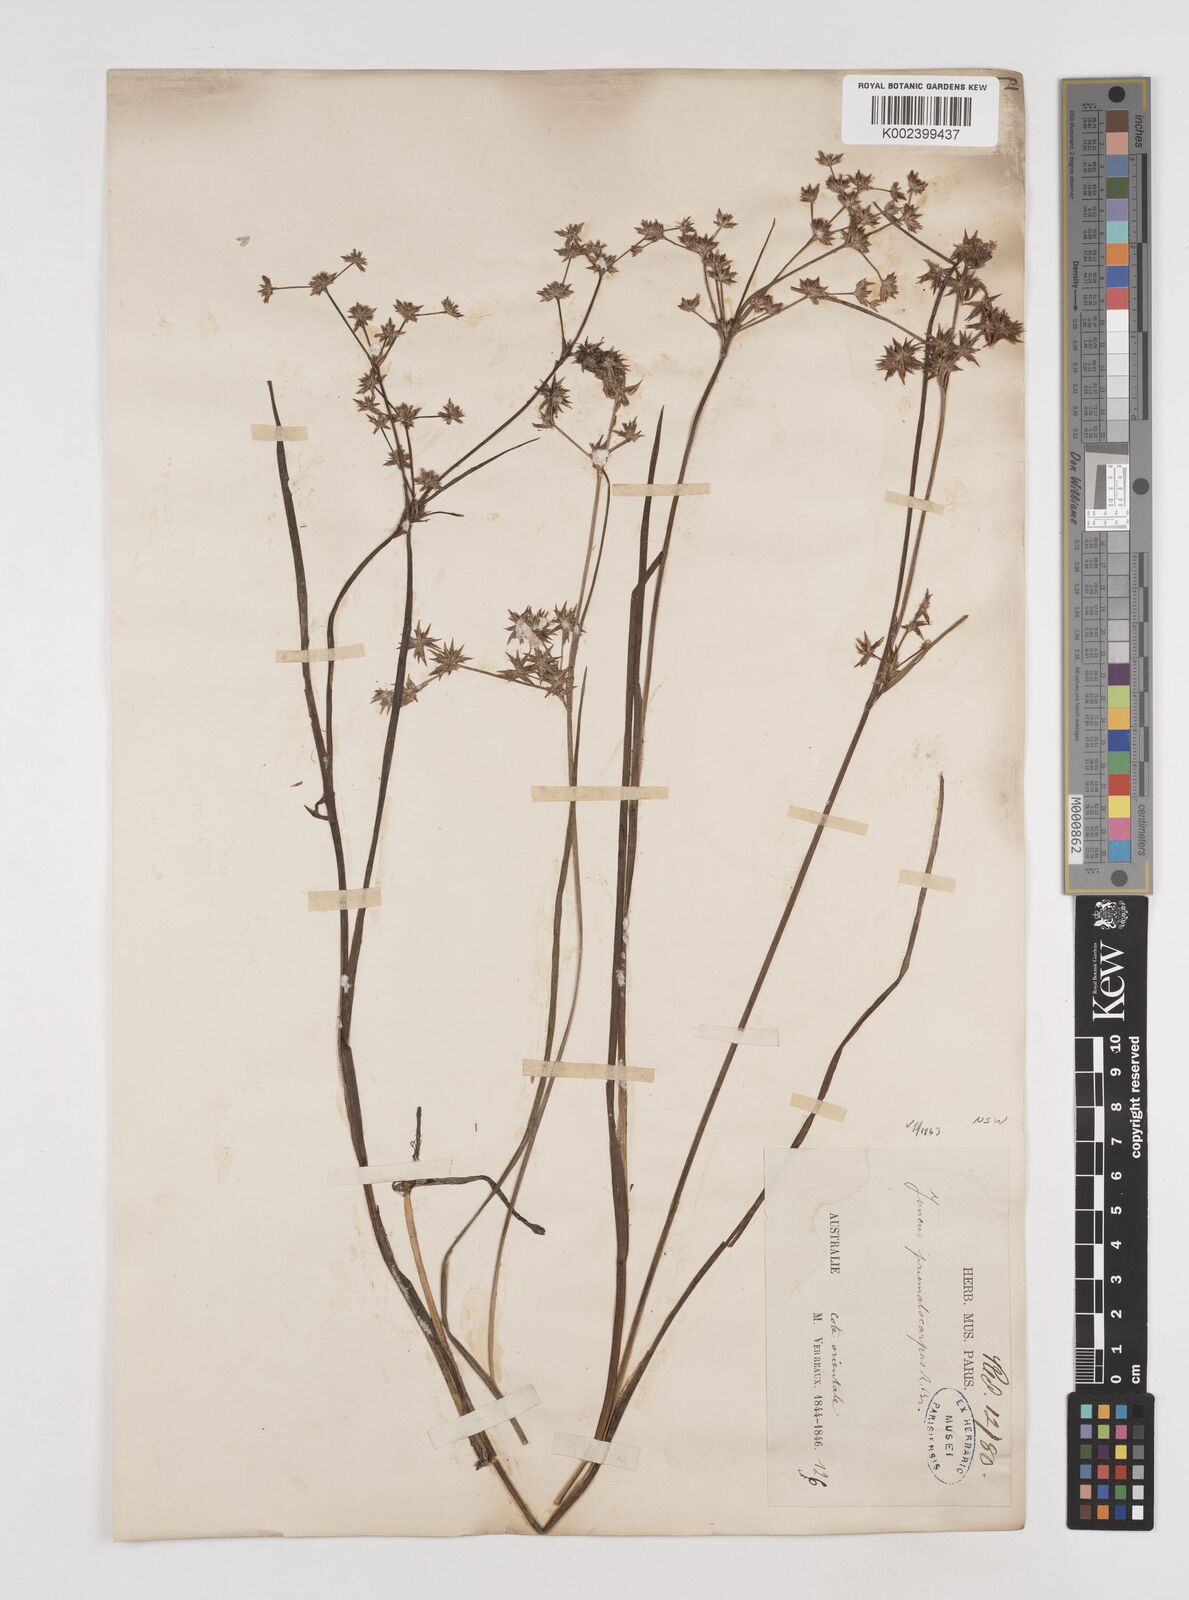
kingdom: Plantae
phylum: Tracheophyta
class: Liliopsida
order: Poales
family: Juncaceae
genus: Juncus
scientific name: Juncus prismatocarpus
